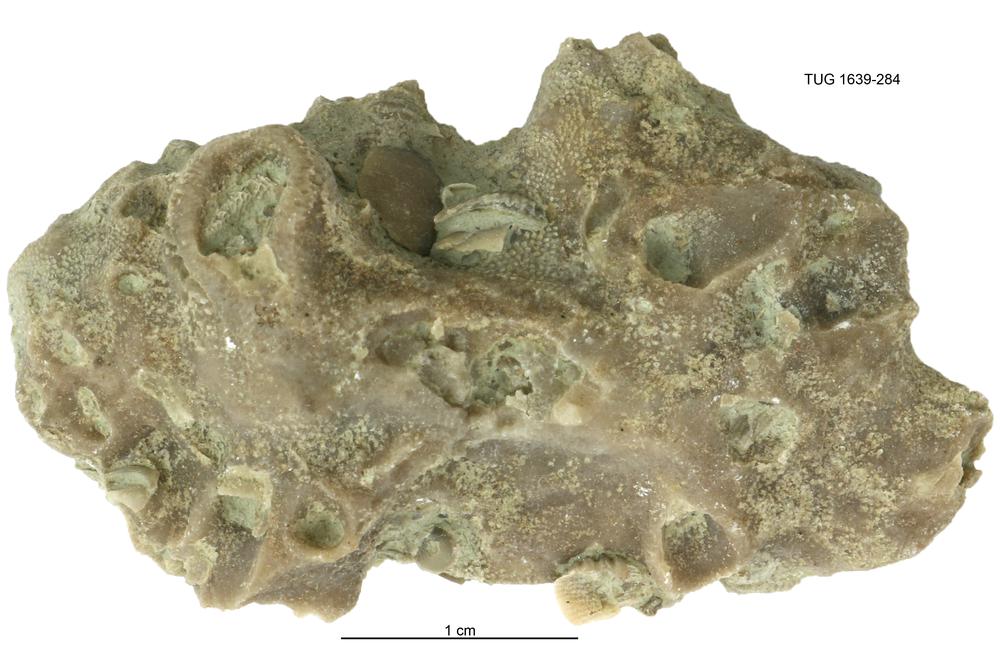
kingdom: Animalia
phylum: Bryozoa
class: Stenolaemata
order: Cystoporida
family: Fistuliporidae
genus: Fistulipora
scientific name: Fistulipora przhidolensis
